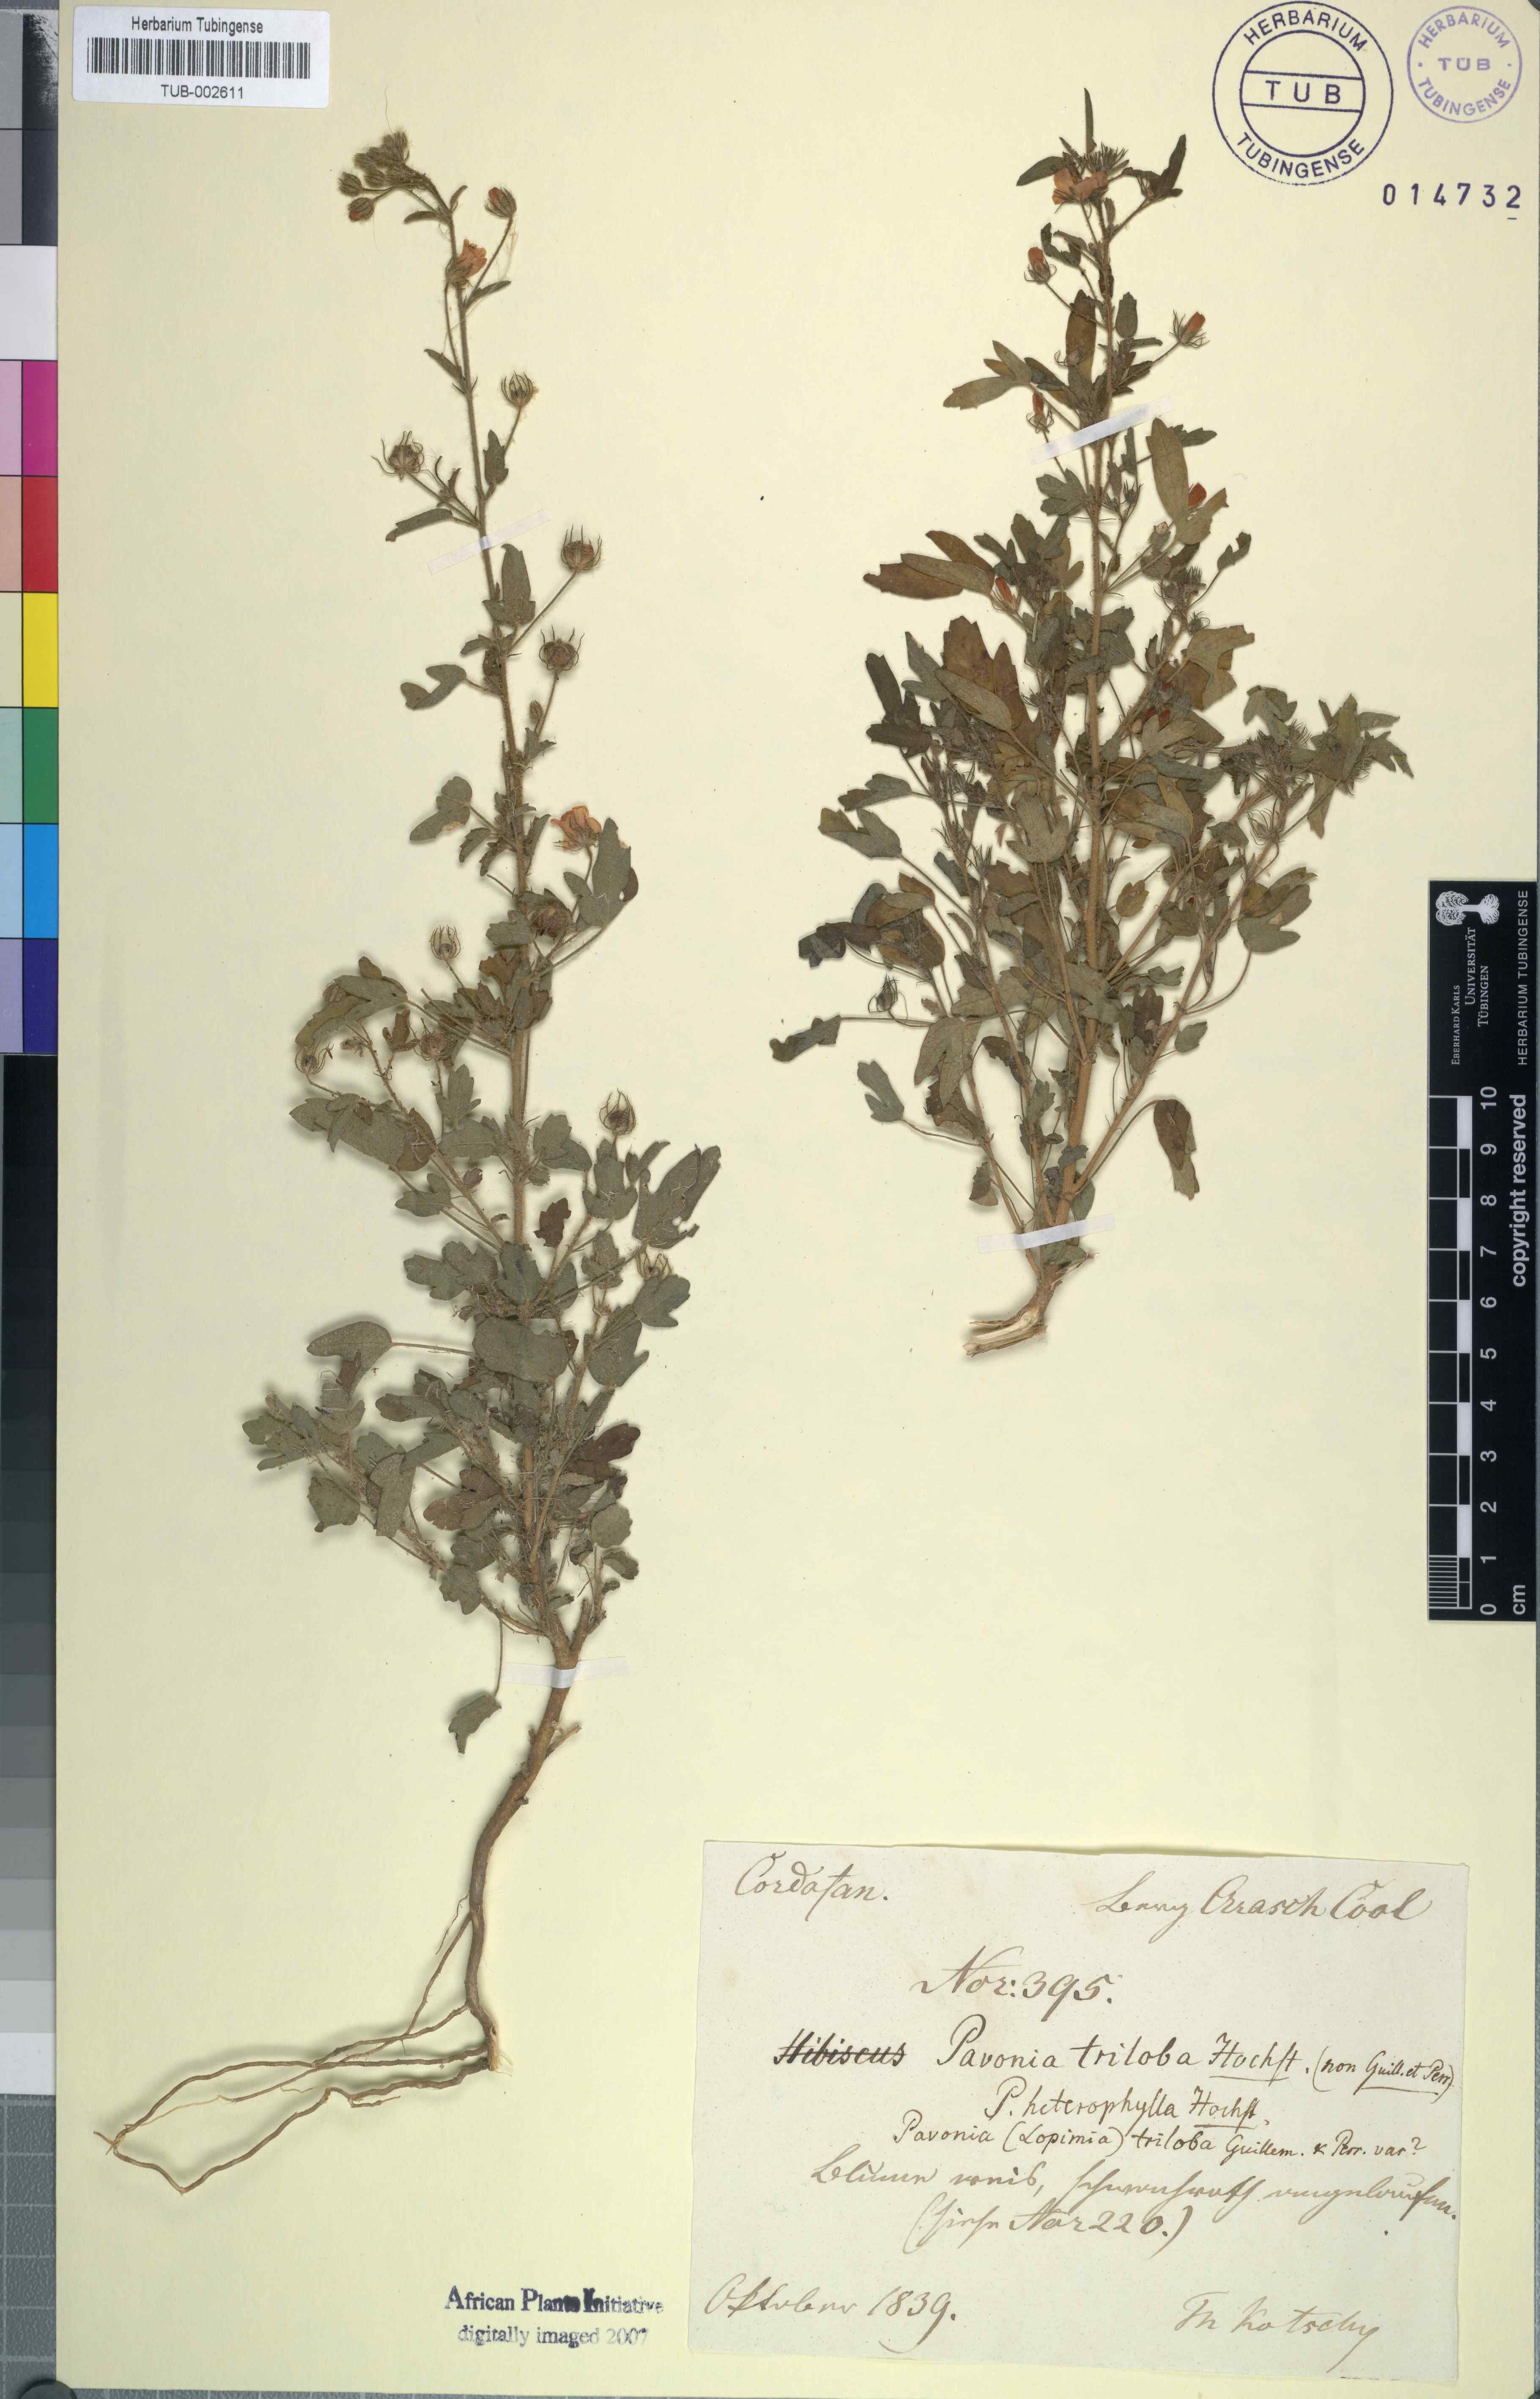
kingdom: Plantae
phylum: Tracheophyta
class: Magnoliopsida
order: Malvales
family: Malvaceae
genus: Pavonia
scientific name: Pavonia triloba
